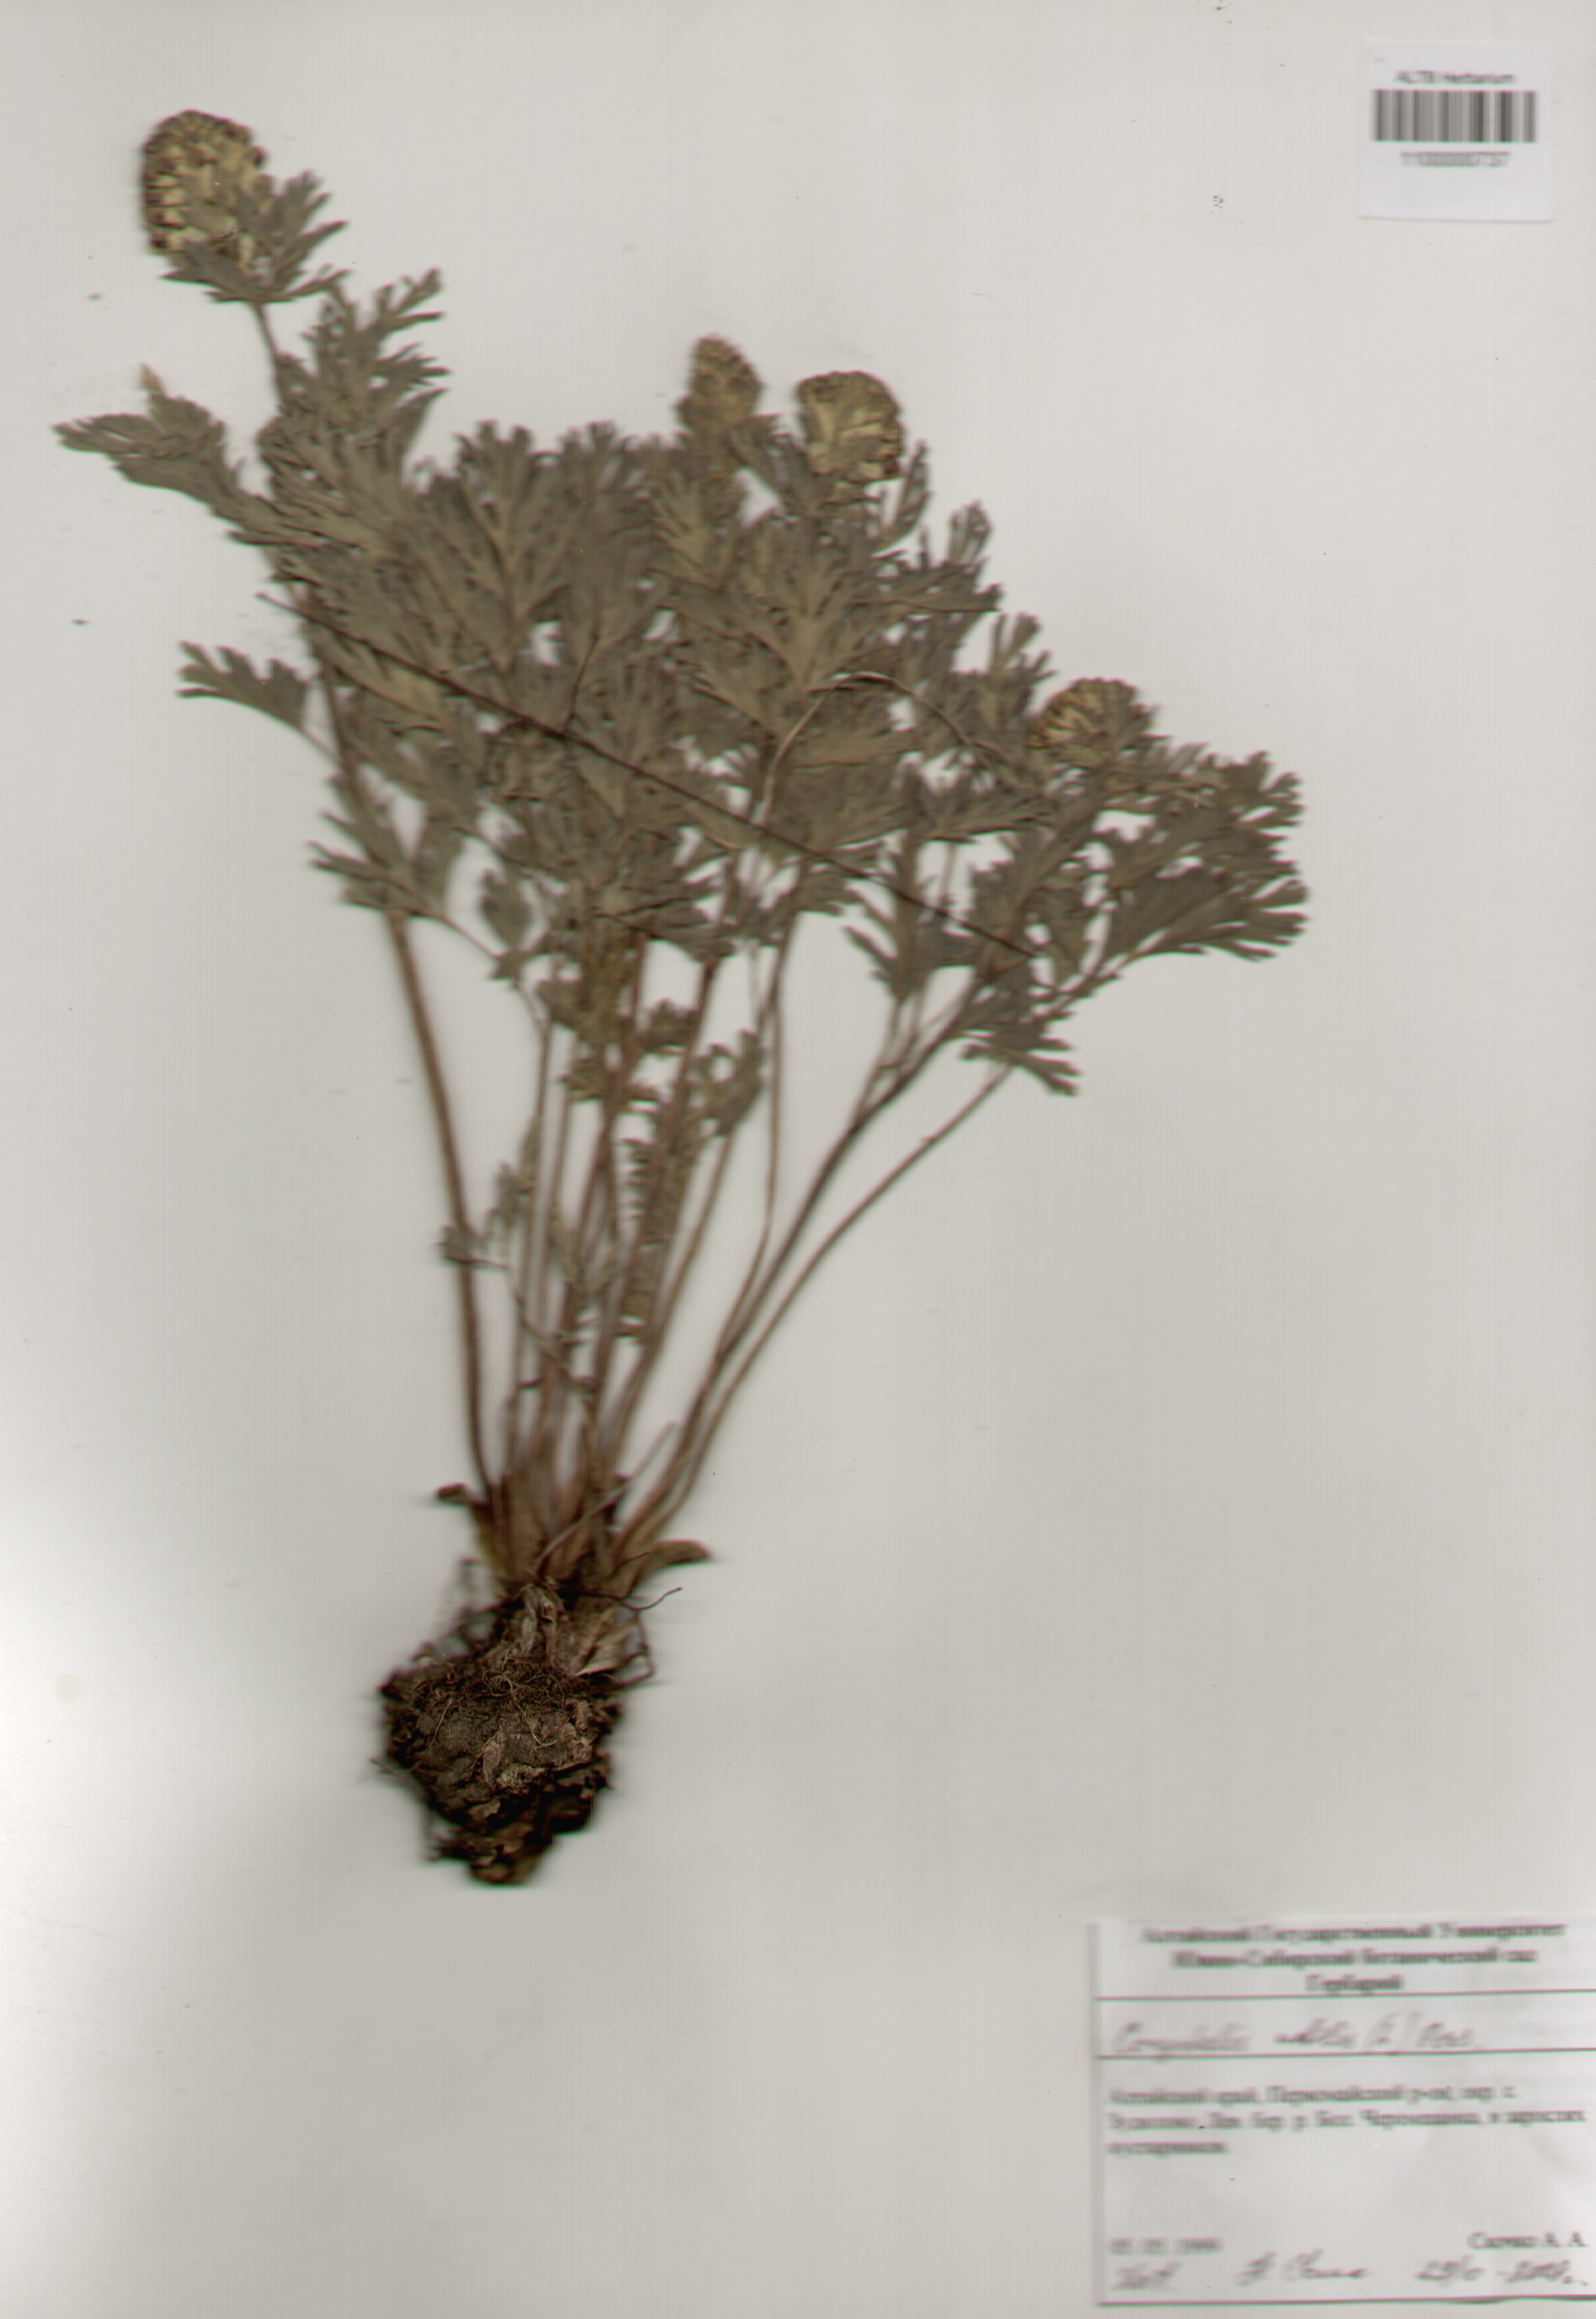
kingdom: Plantae
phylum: Tracheophyta
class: Magnoliopsida
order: Ranunculales
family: Papaveraceae
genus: Corydalis
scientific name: Corydalis nobilis
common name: Siberian corydalis
